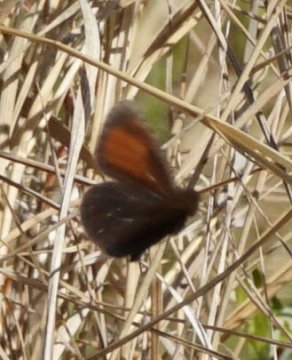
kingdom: Animalia
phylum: Arthropoda
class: Insecta
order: Lepidoptera
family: Nymphalidae
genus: Erebia
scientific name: Erebia discoidalis
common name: Red-disked Alpine
